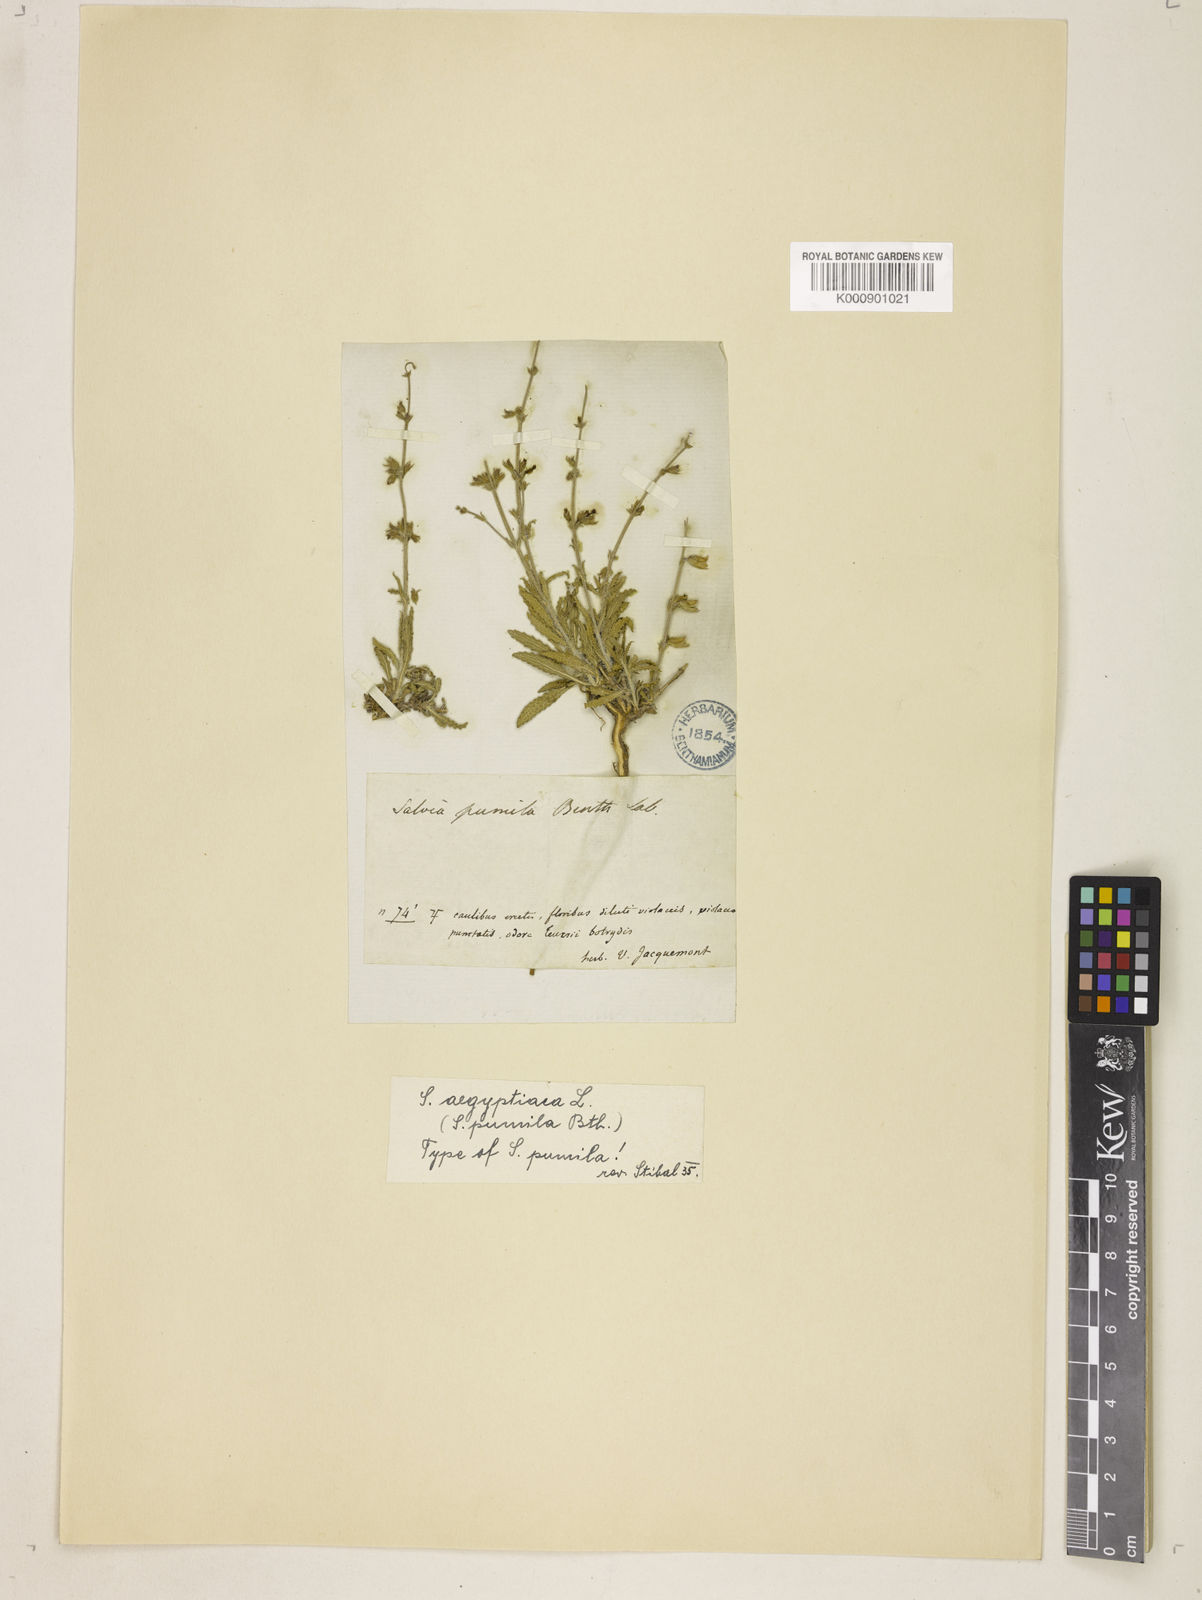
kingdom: Plantae
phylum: Tracheophyta
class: Magnoliopsida
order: Lamiales
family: Lamiaceae
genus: Salvia
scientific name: Salvia aegyptiaca
